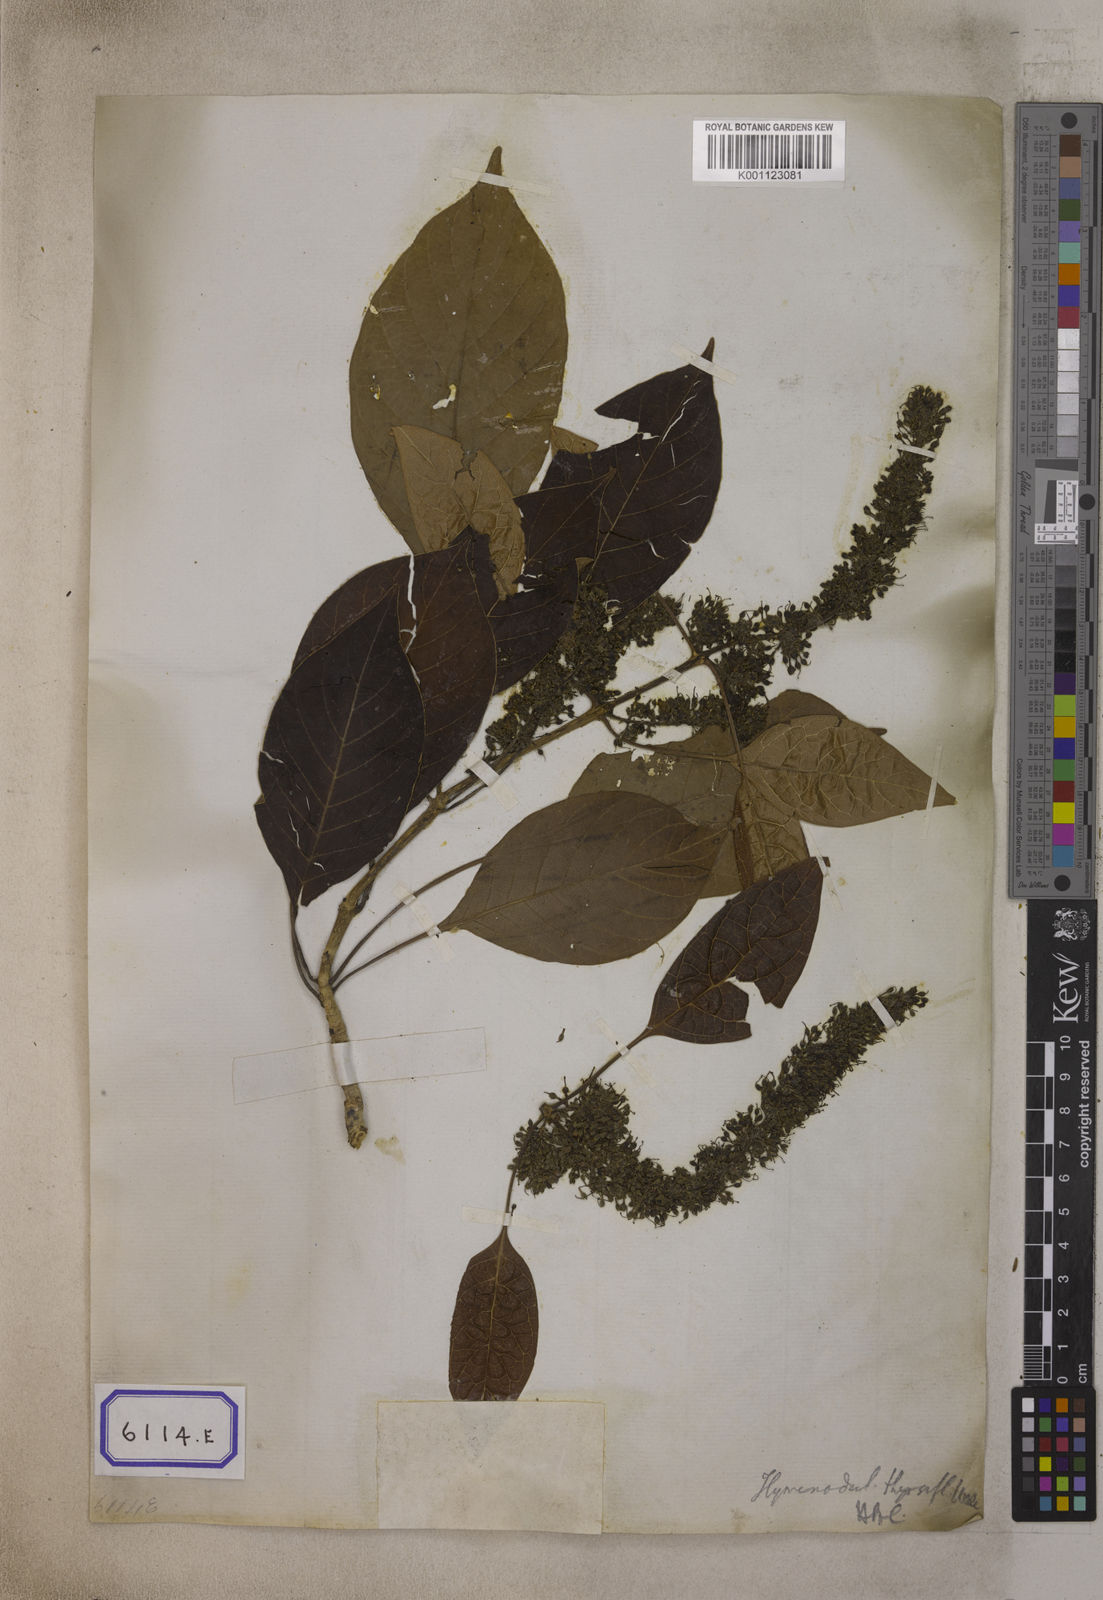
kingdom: Plantae
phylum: Tracheophyta
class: Magnoliopsida
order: Gentianales
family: Rubiaceae
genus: Hymenodictyon
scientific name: Hymenodictyon orixense
